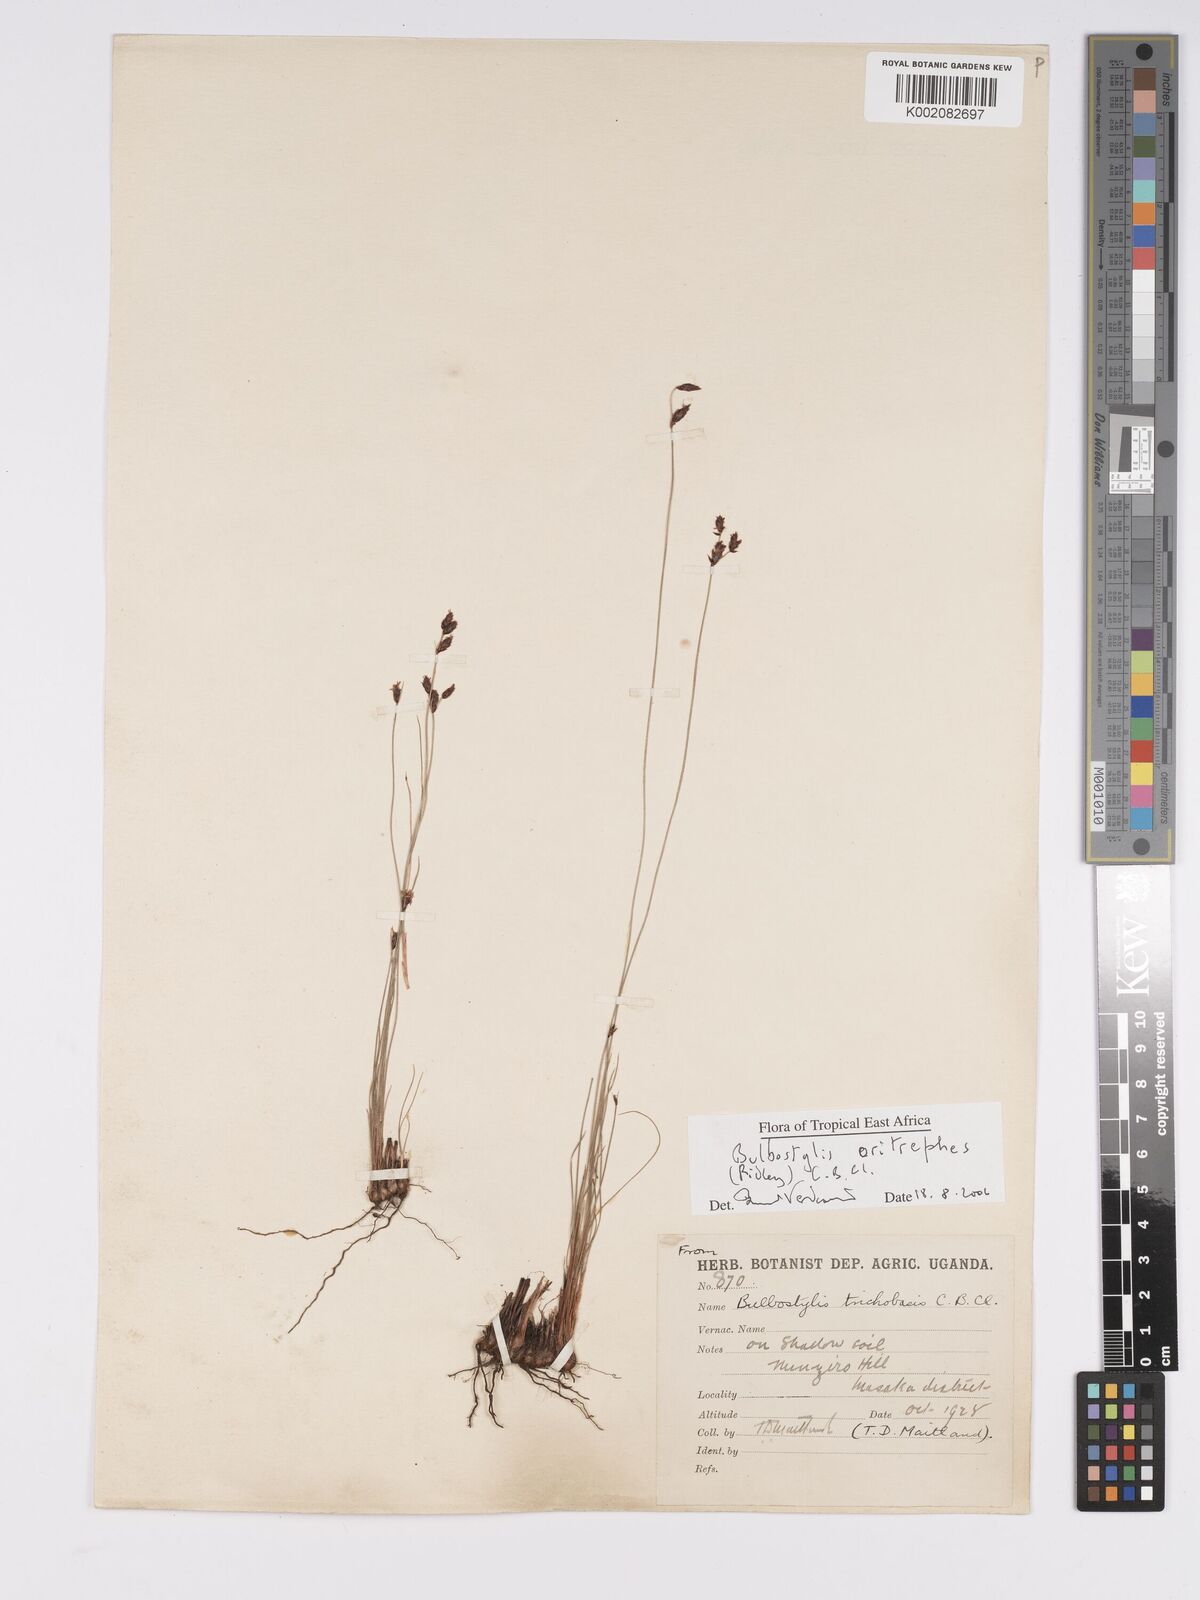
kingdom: Plantae
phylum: Tracheophyta
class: Liliopsida
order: Poales
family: Cyperaceae
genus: Bulbostylis
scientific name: Bulbostylis oritrephes
